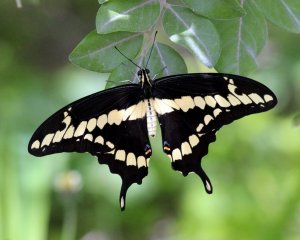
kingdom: Animalia
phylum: Arthropoda
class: Insecta
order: Lepidoptera
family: Papilionidae
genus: Papilio
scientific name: Papilio
